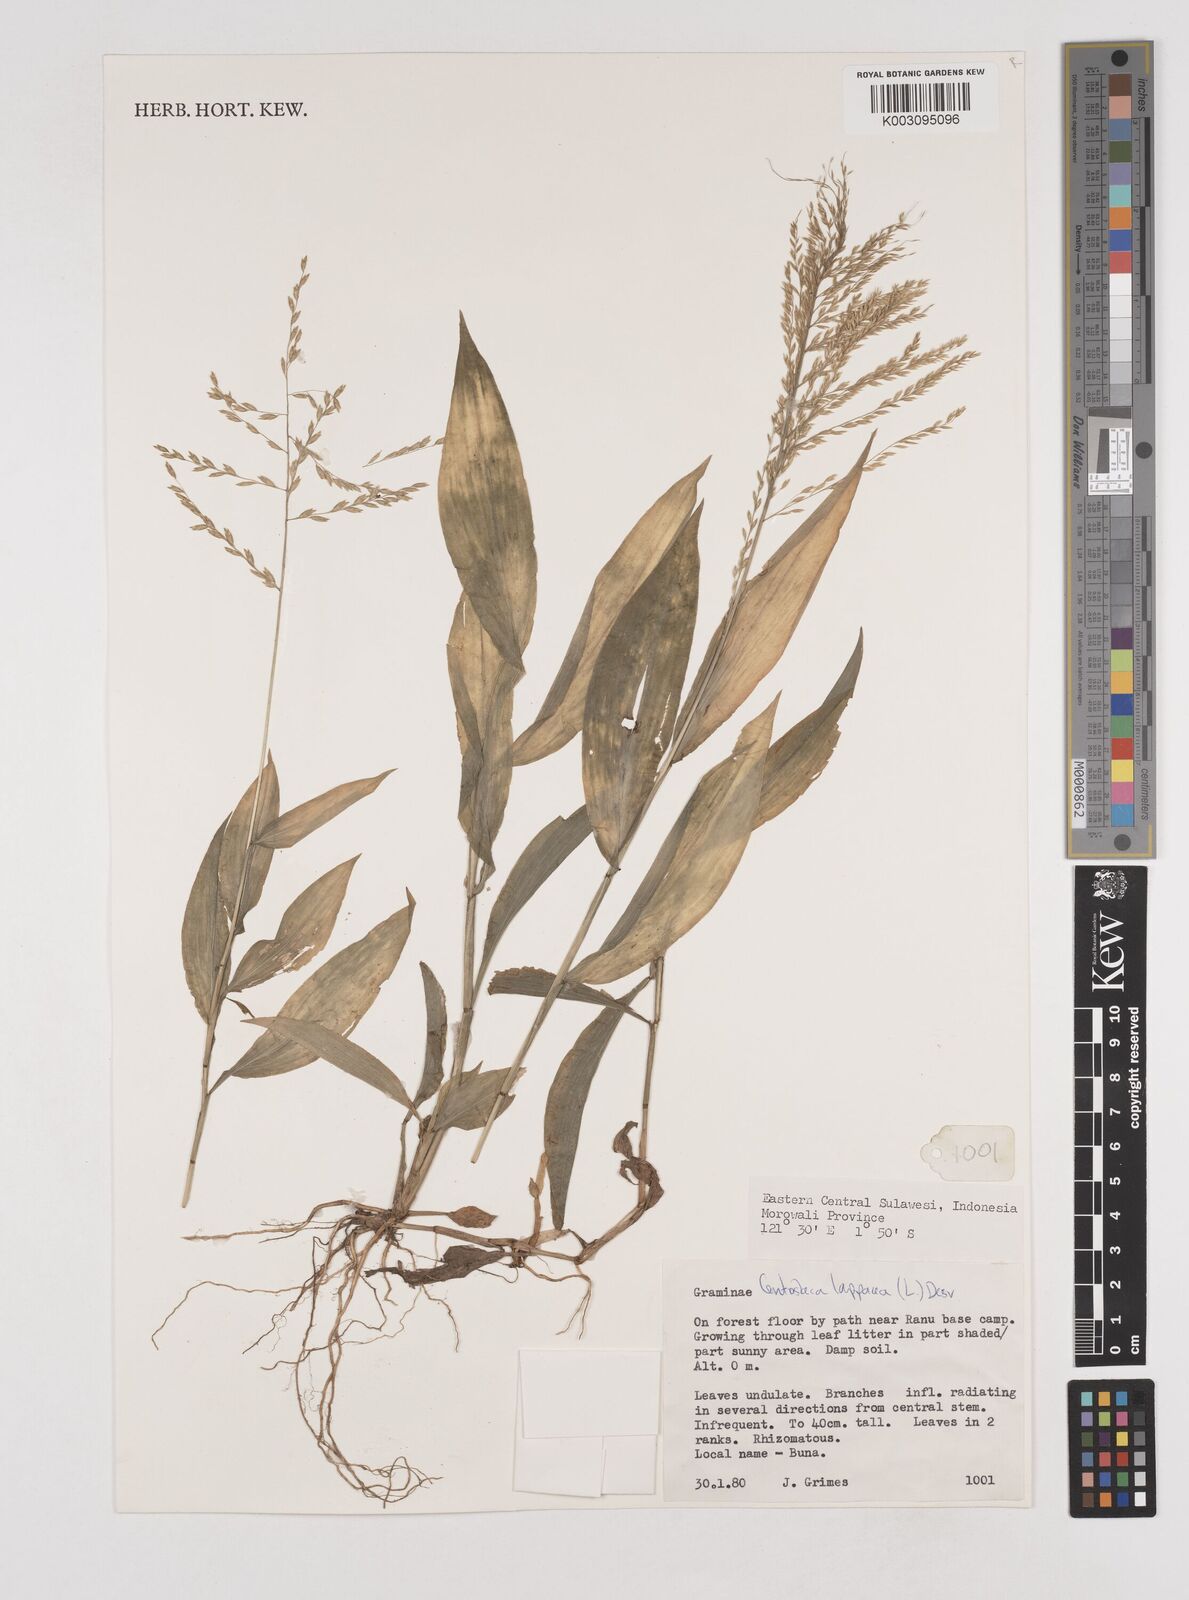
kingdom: Plantae
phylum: Tracheophyta
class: Liliopsida
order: Poales
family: Poaceae
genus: Centotheca
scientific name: Centotheca lappacea
